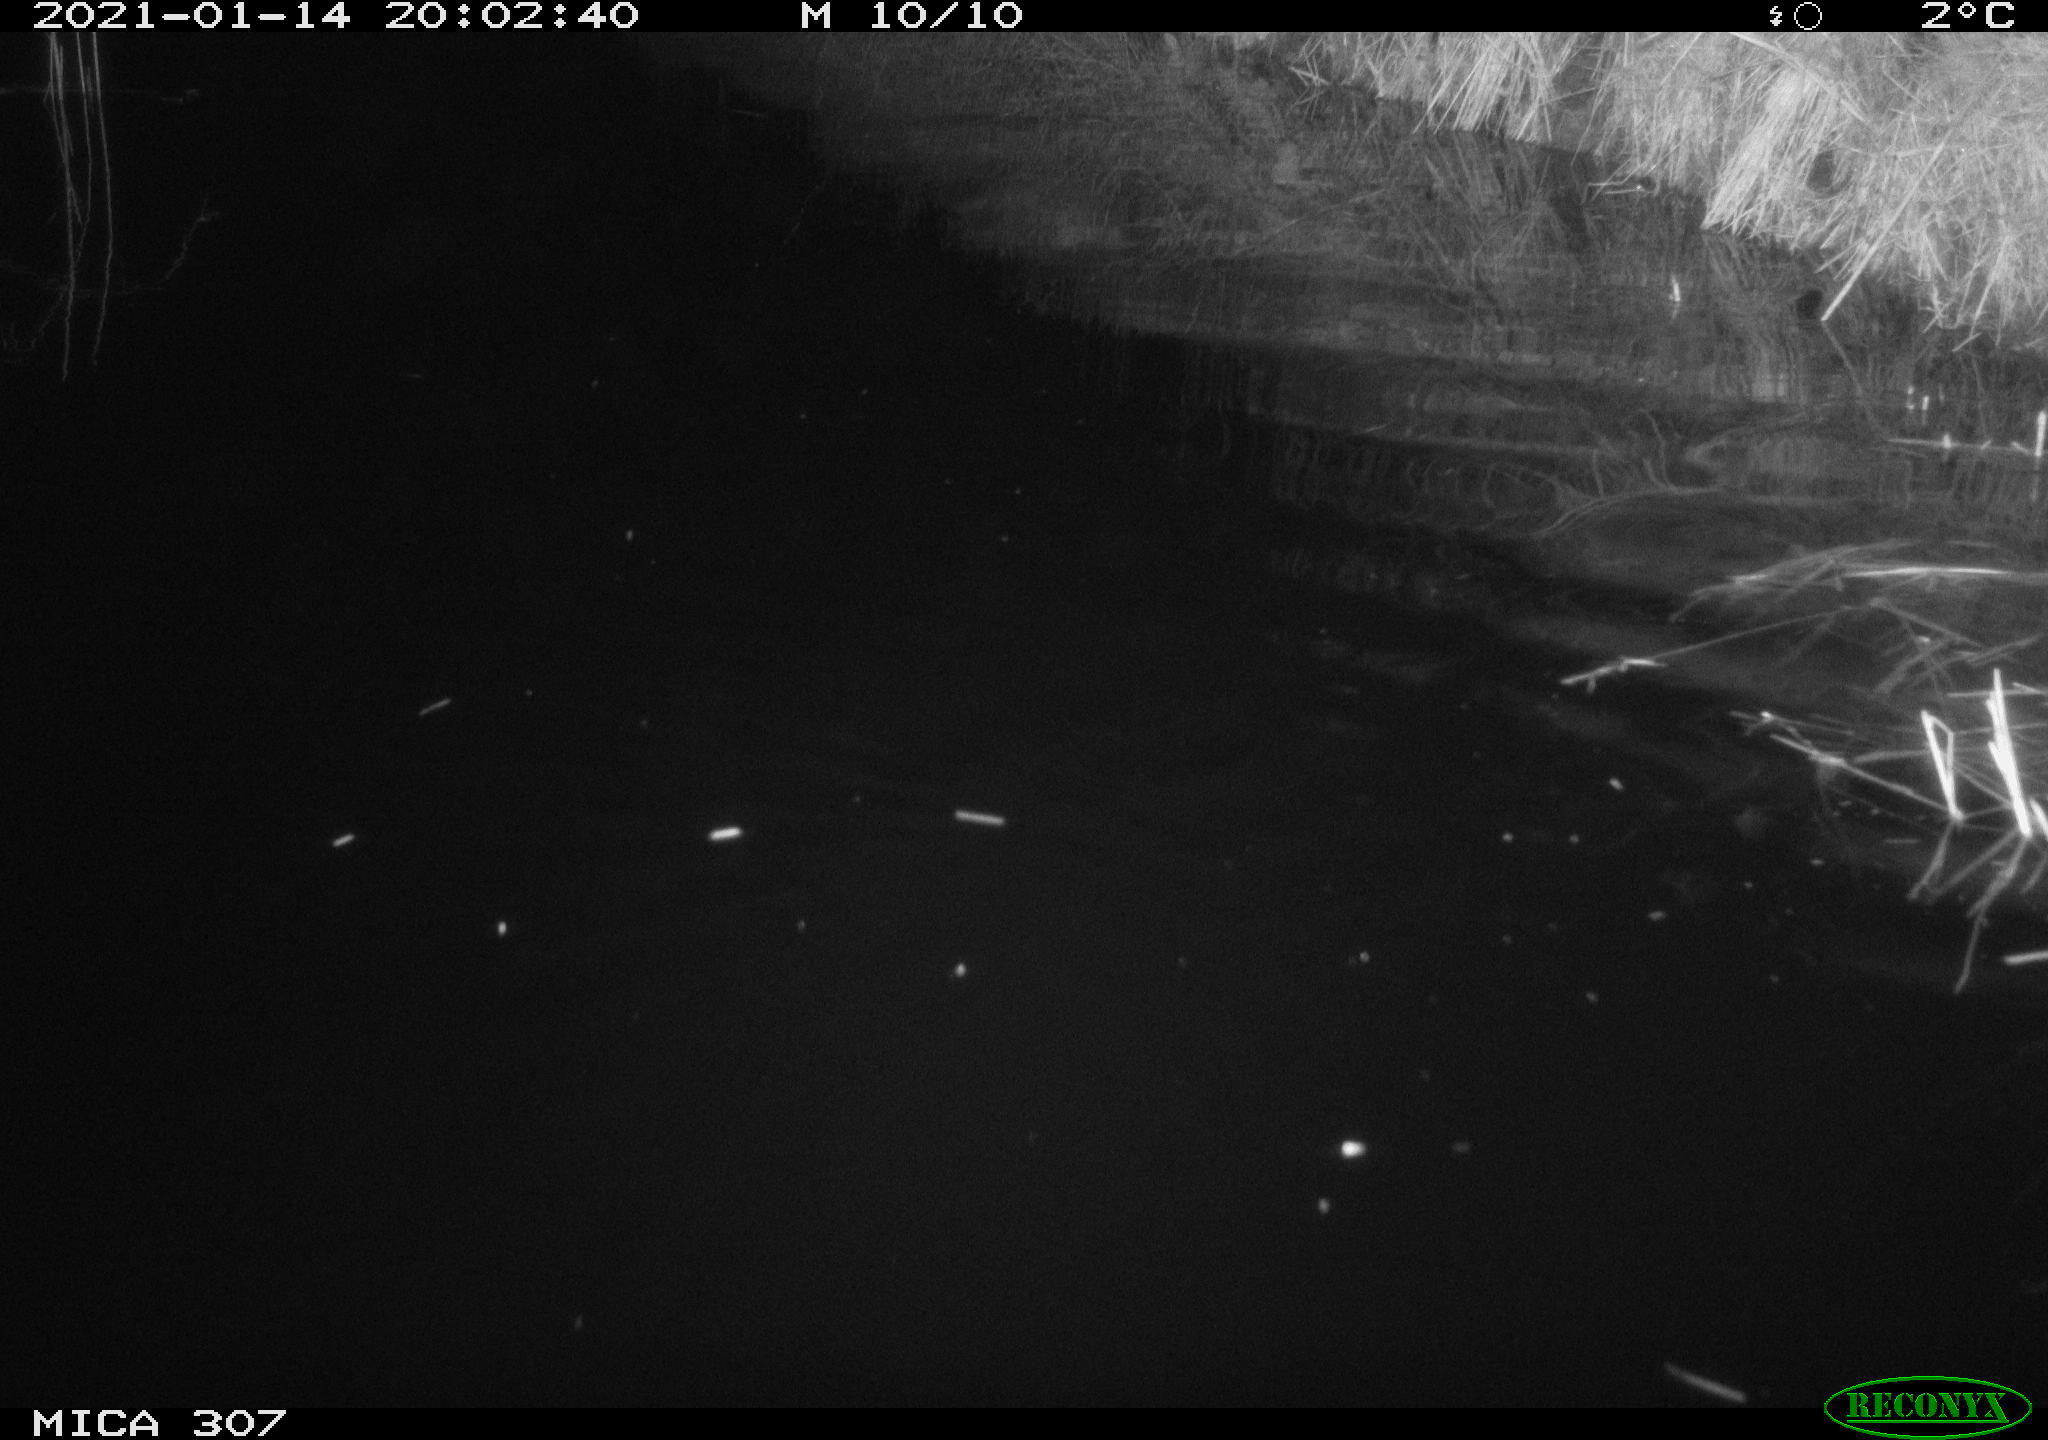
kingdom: Animalia
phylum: Chordata
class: Mammalia
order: Rodentia
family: Muridae
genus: Rattus
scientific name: Rattus norvegicus
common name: Brown rat
